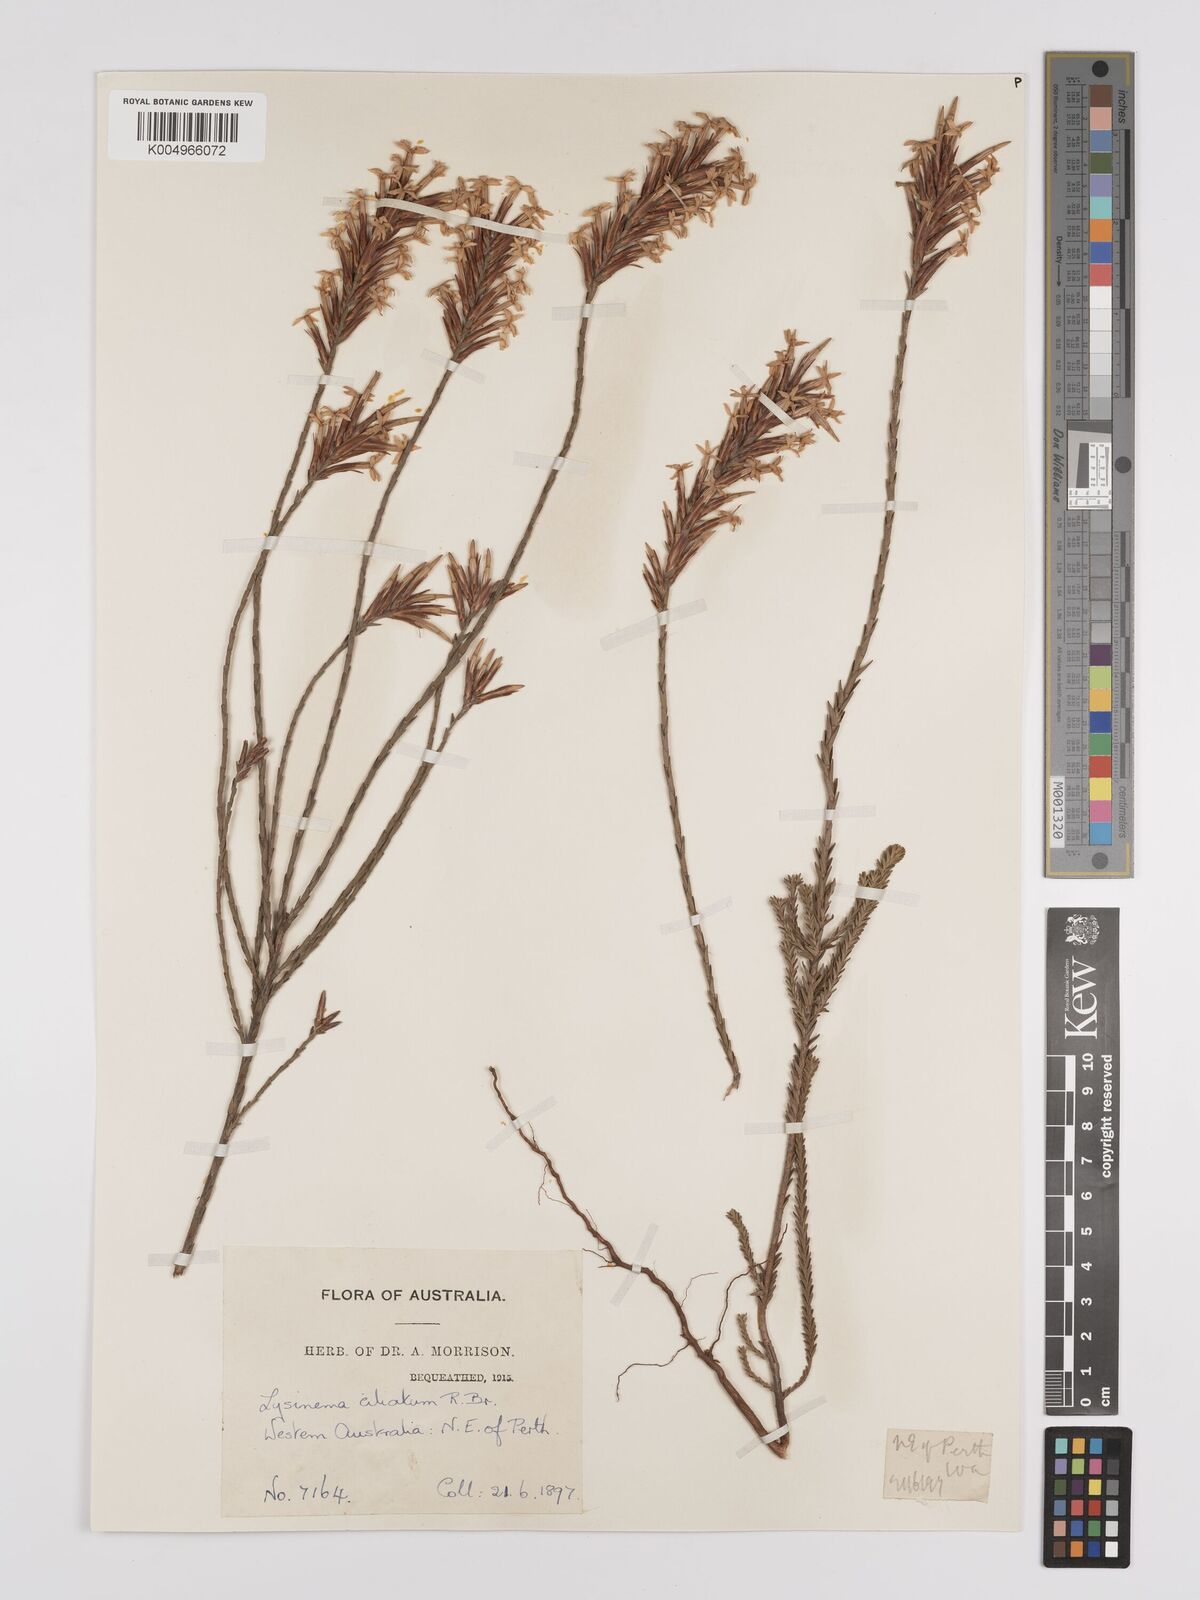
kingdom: Plantae
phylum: Tracheophyta
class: Magnoliopsida
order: Ericales
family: Ericaceae
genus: Lysinema
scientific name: Lysinema ciliatum
